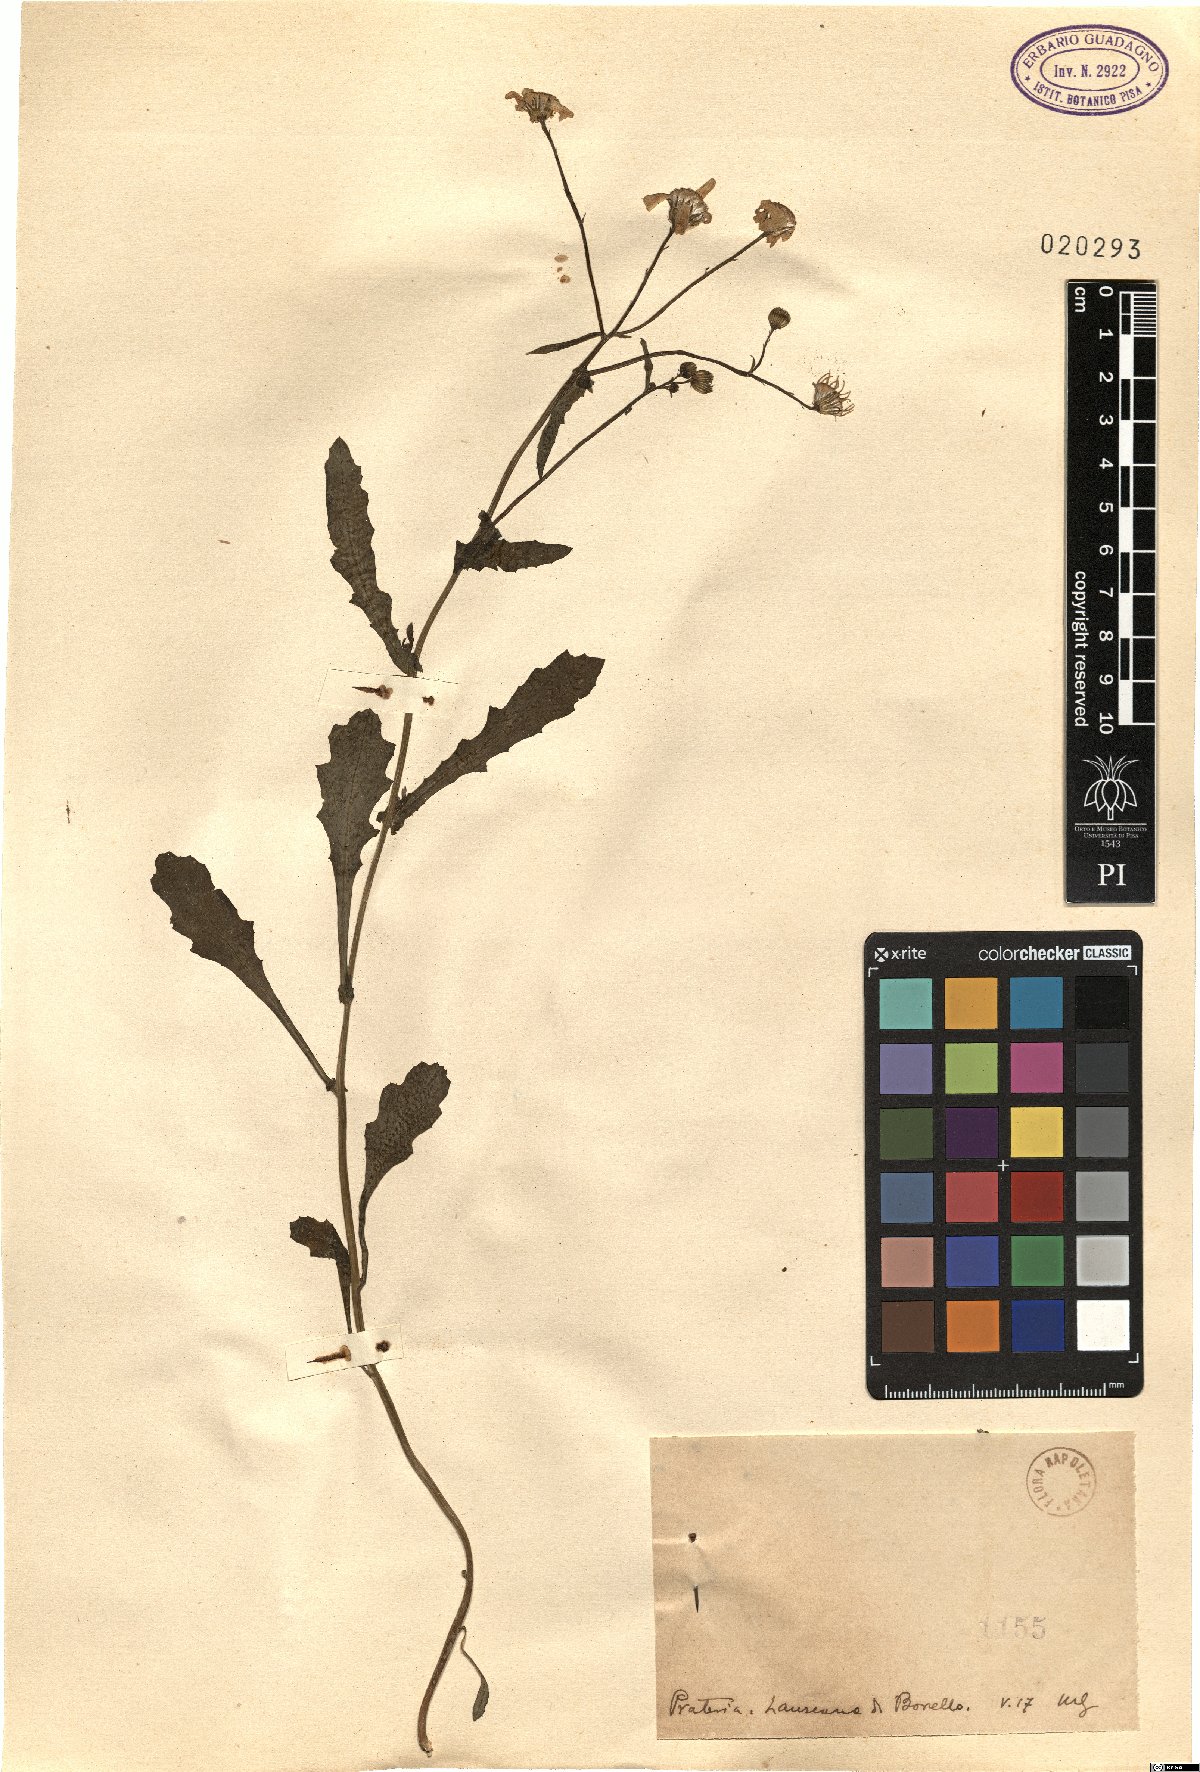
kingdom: Plantae
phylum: Tracheophyta
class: Magnoliopsida
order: Asterales
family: Asteraceae
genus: Senecio
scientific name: Senecio
